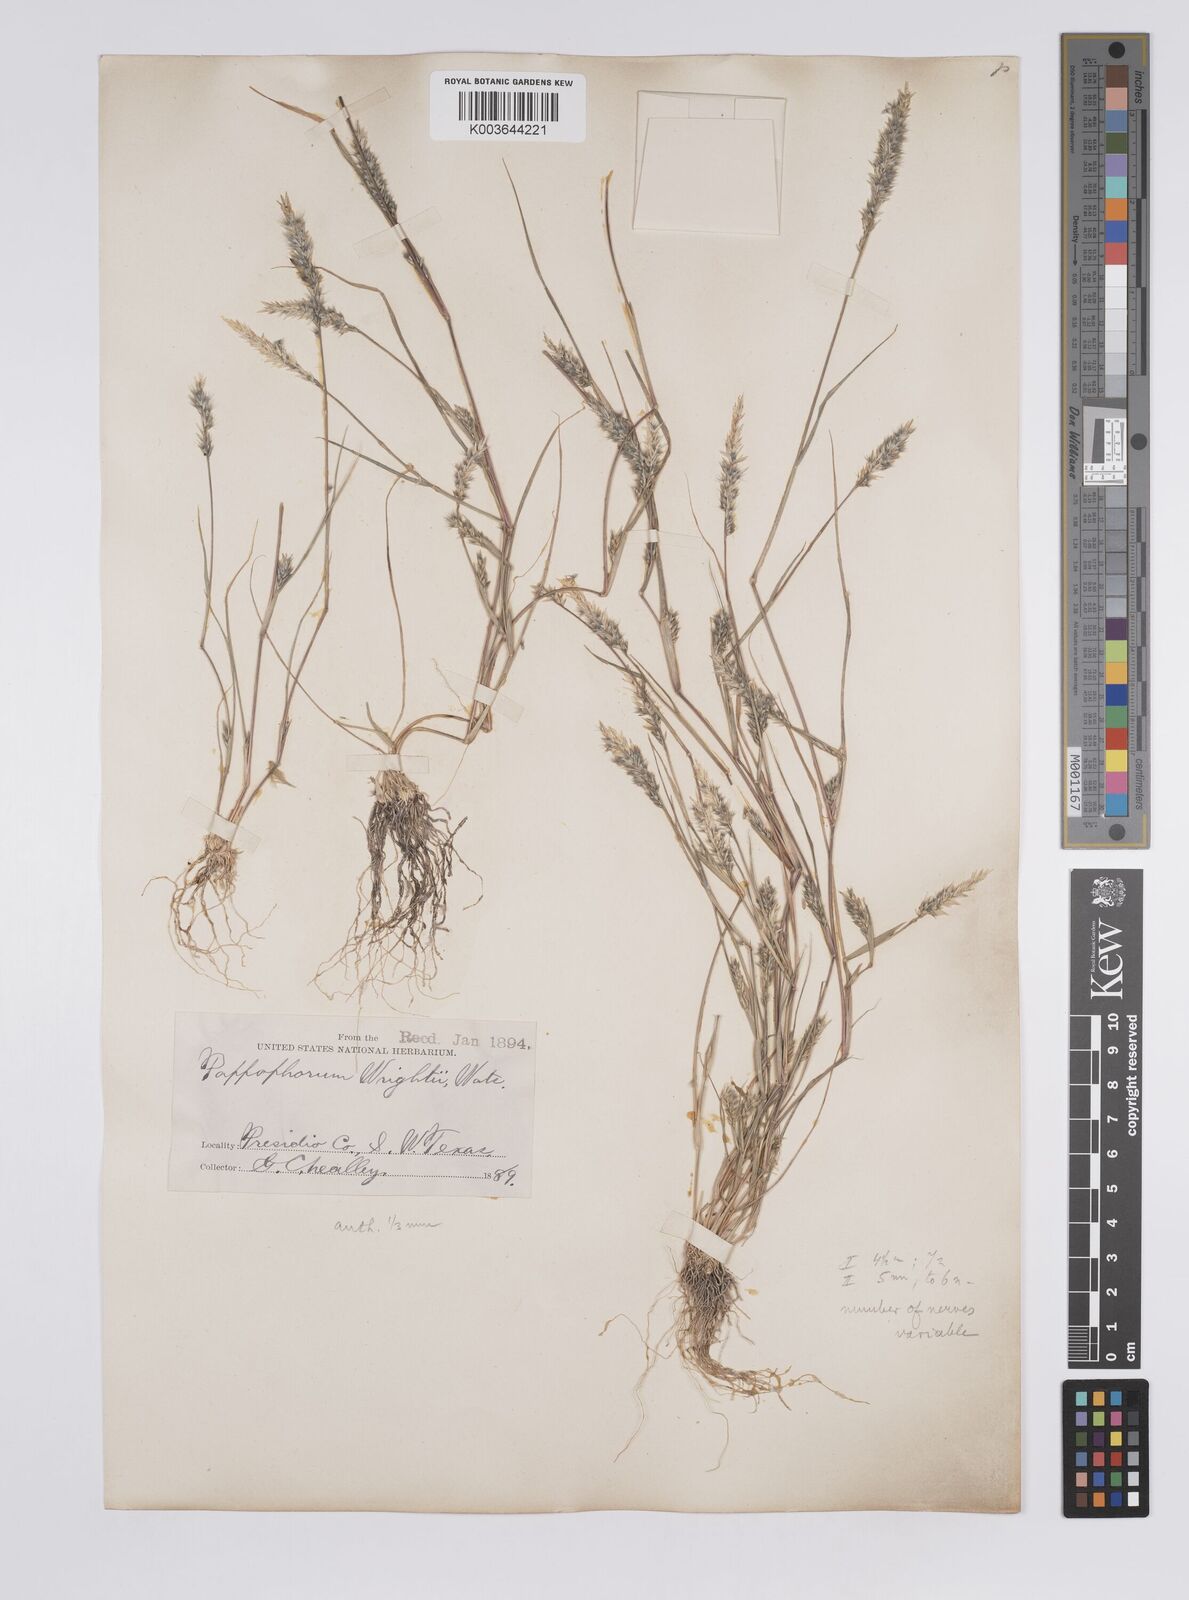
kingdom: Plantae
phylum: Tracheophyta
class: Liliopsida
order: Poales
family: Poaceae
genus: Enneapogon
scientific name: Enneapogon desvauxii
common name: Feather pappus grass
